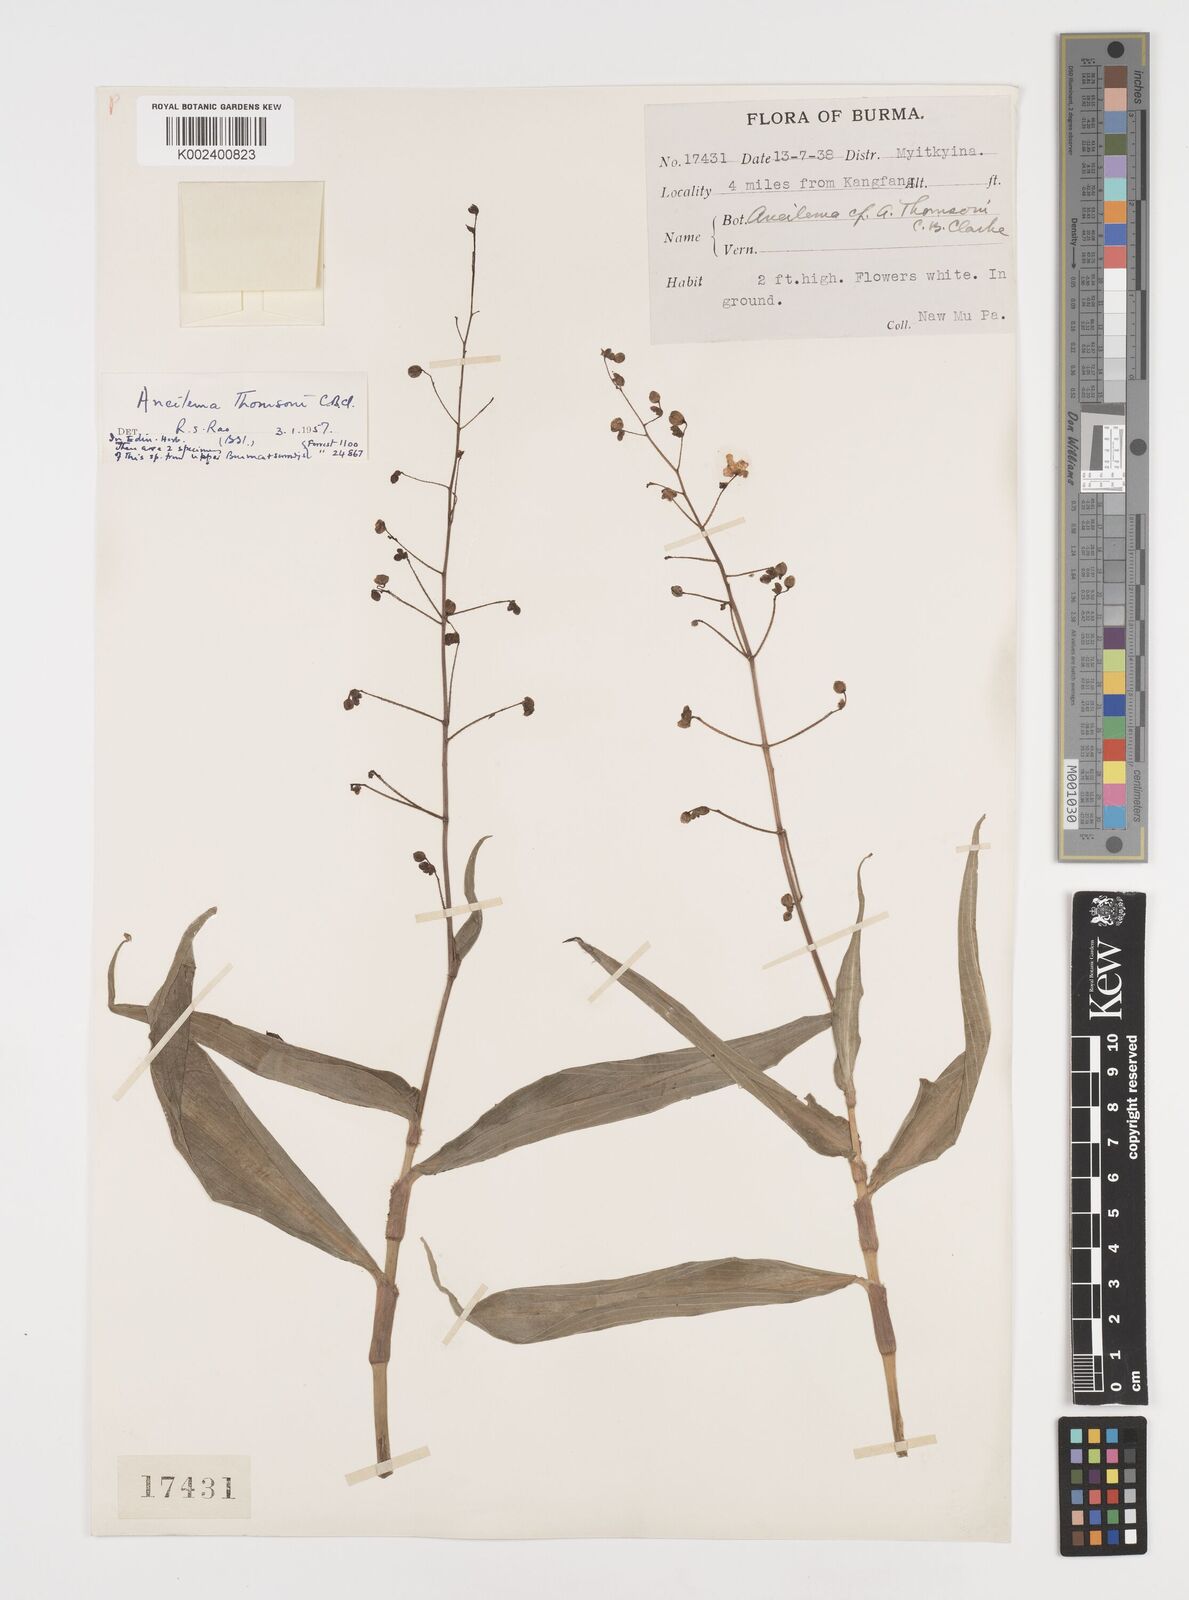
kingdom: Plantae
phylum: Tracheophyta
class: Liliopsida
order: Commelinales
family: Commelinaceae
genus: Tricarpelema
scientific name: Tricarpelema giganteum
